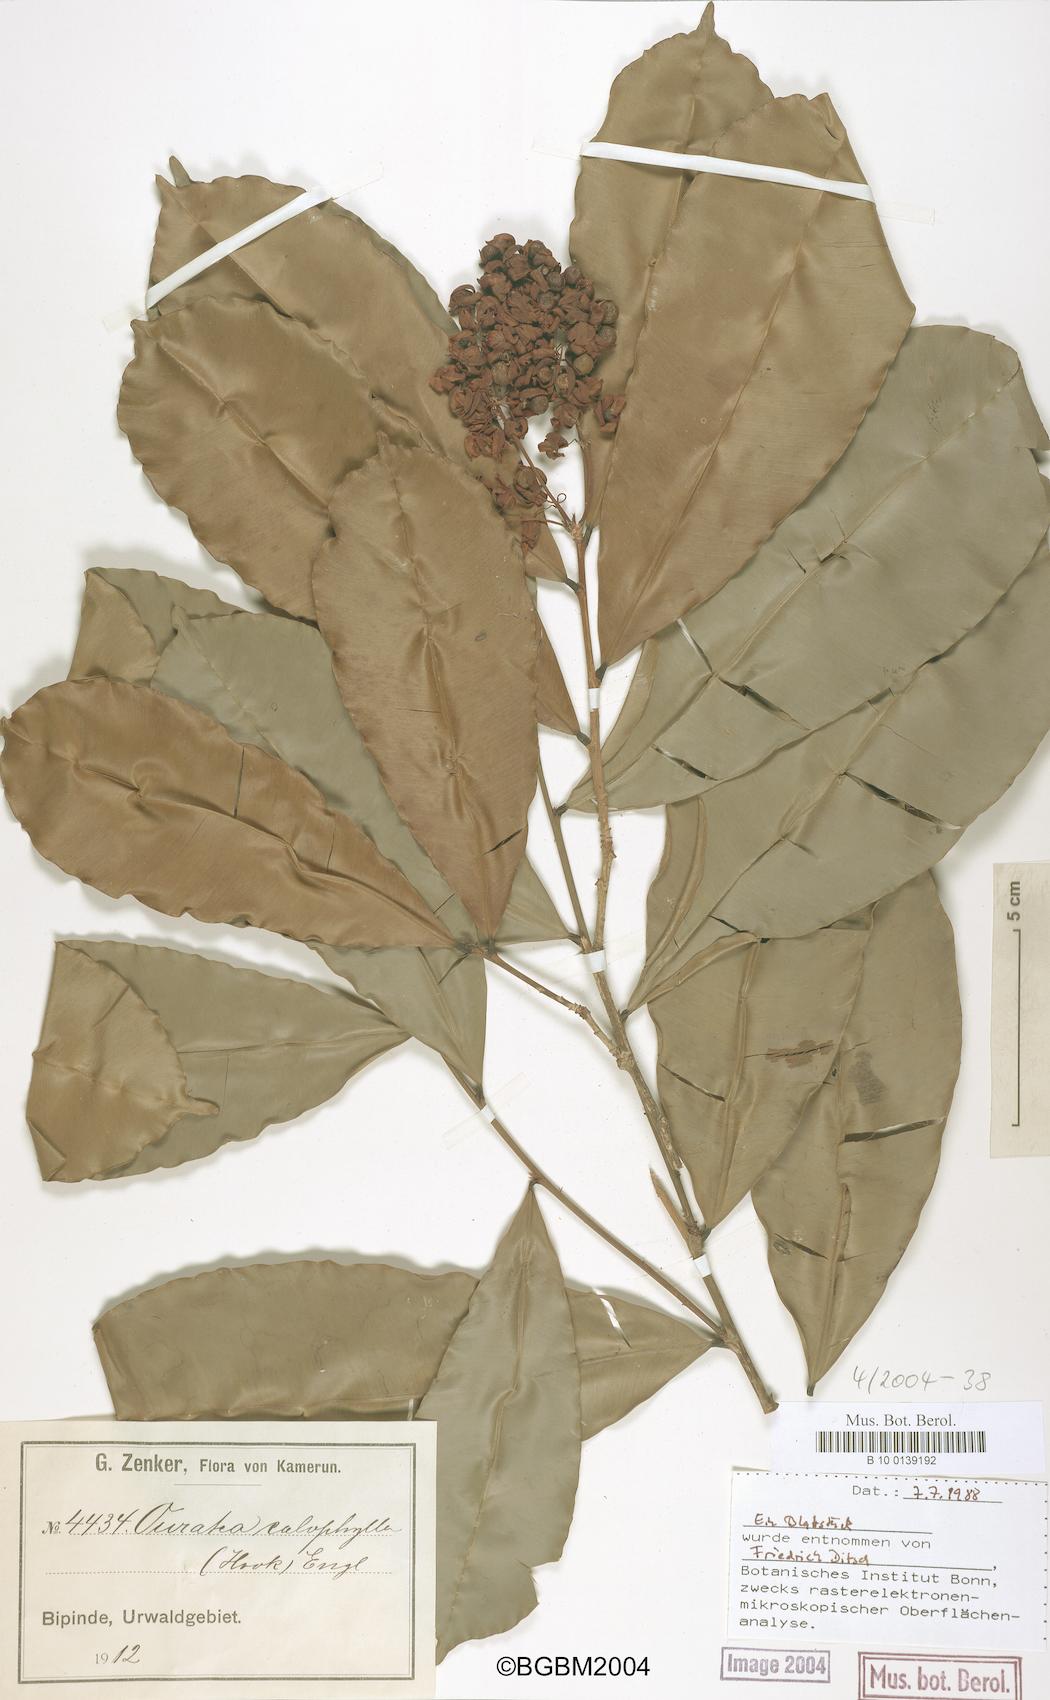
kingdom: Plantae
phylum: Tracheophyta
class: Magnoliopsida
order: Malpighiales
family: Ochnaceae
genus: Rhabdophyllum
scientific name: Rhabdophyllum calophyllum
